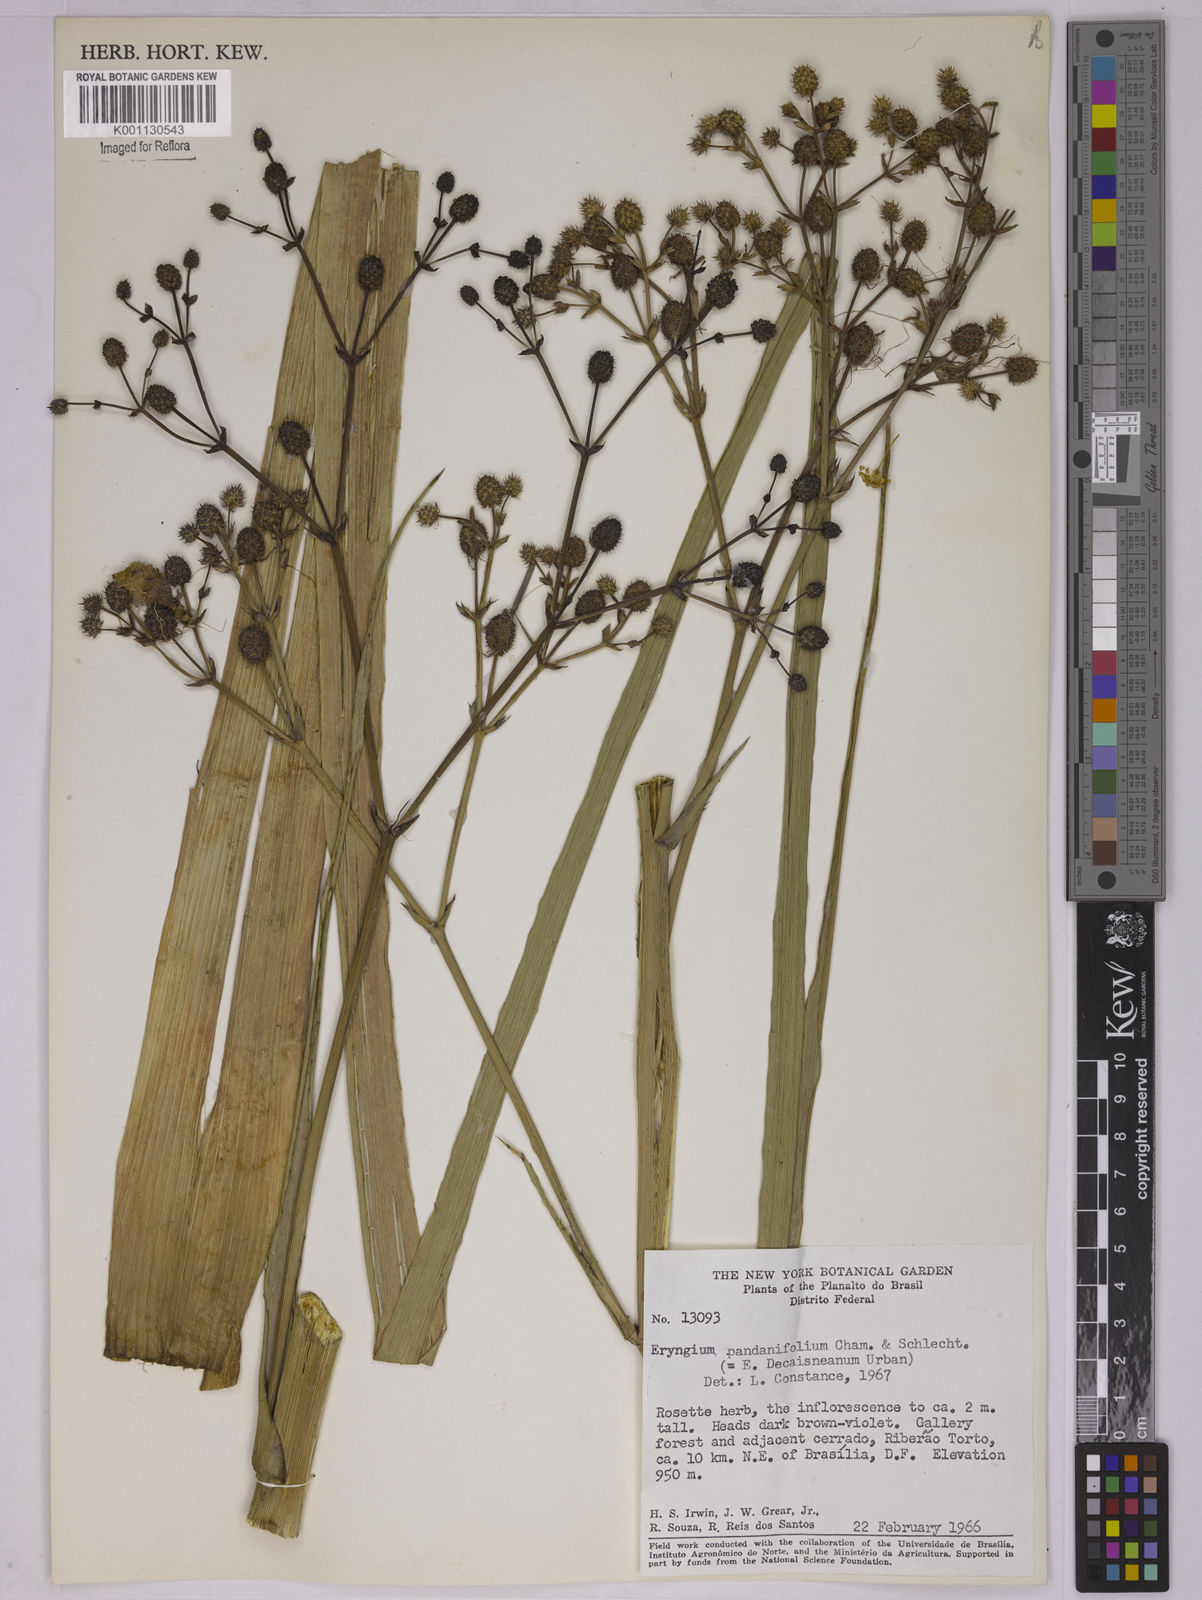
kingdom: Plantae
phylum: Tracheophyta
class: Magnoliopsida
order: Apiales
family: Apiaceae
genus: Eryngium
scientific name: Eryngium pandanifolium
